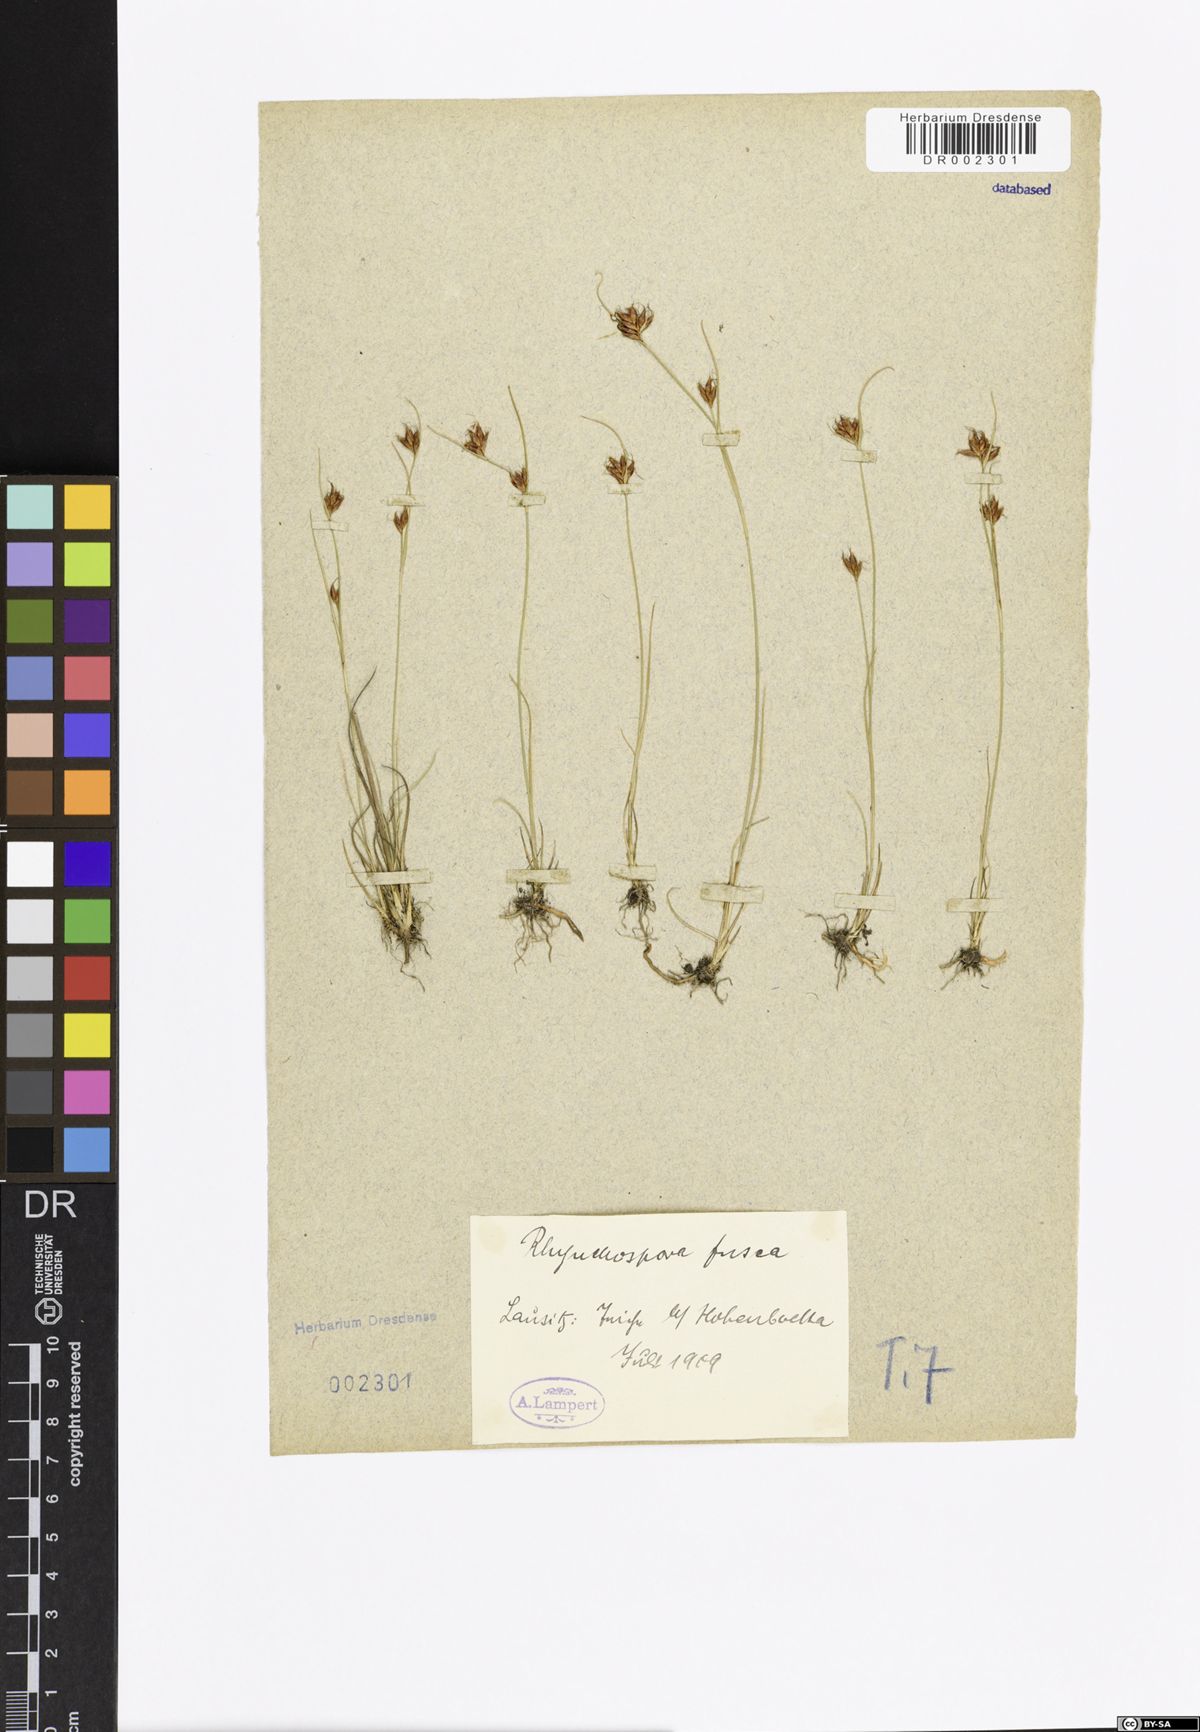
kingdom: Plantae
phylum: Tracheophyta
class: Liliopsida
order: Poales
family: Cyperaceae
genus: Rhynchospora
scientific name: Rhynchospora fusca
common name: Brown beak-sedge
